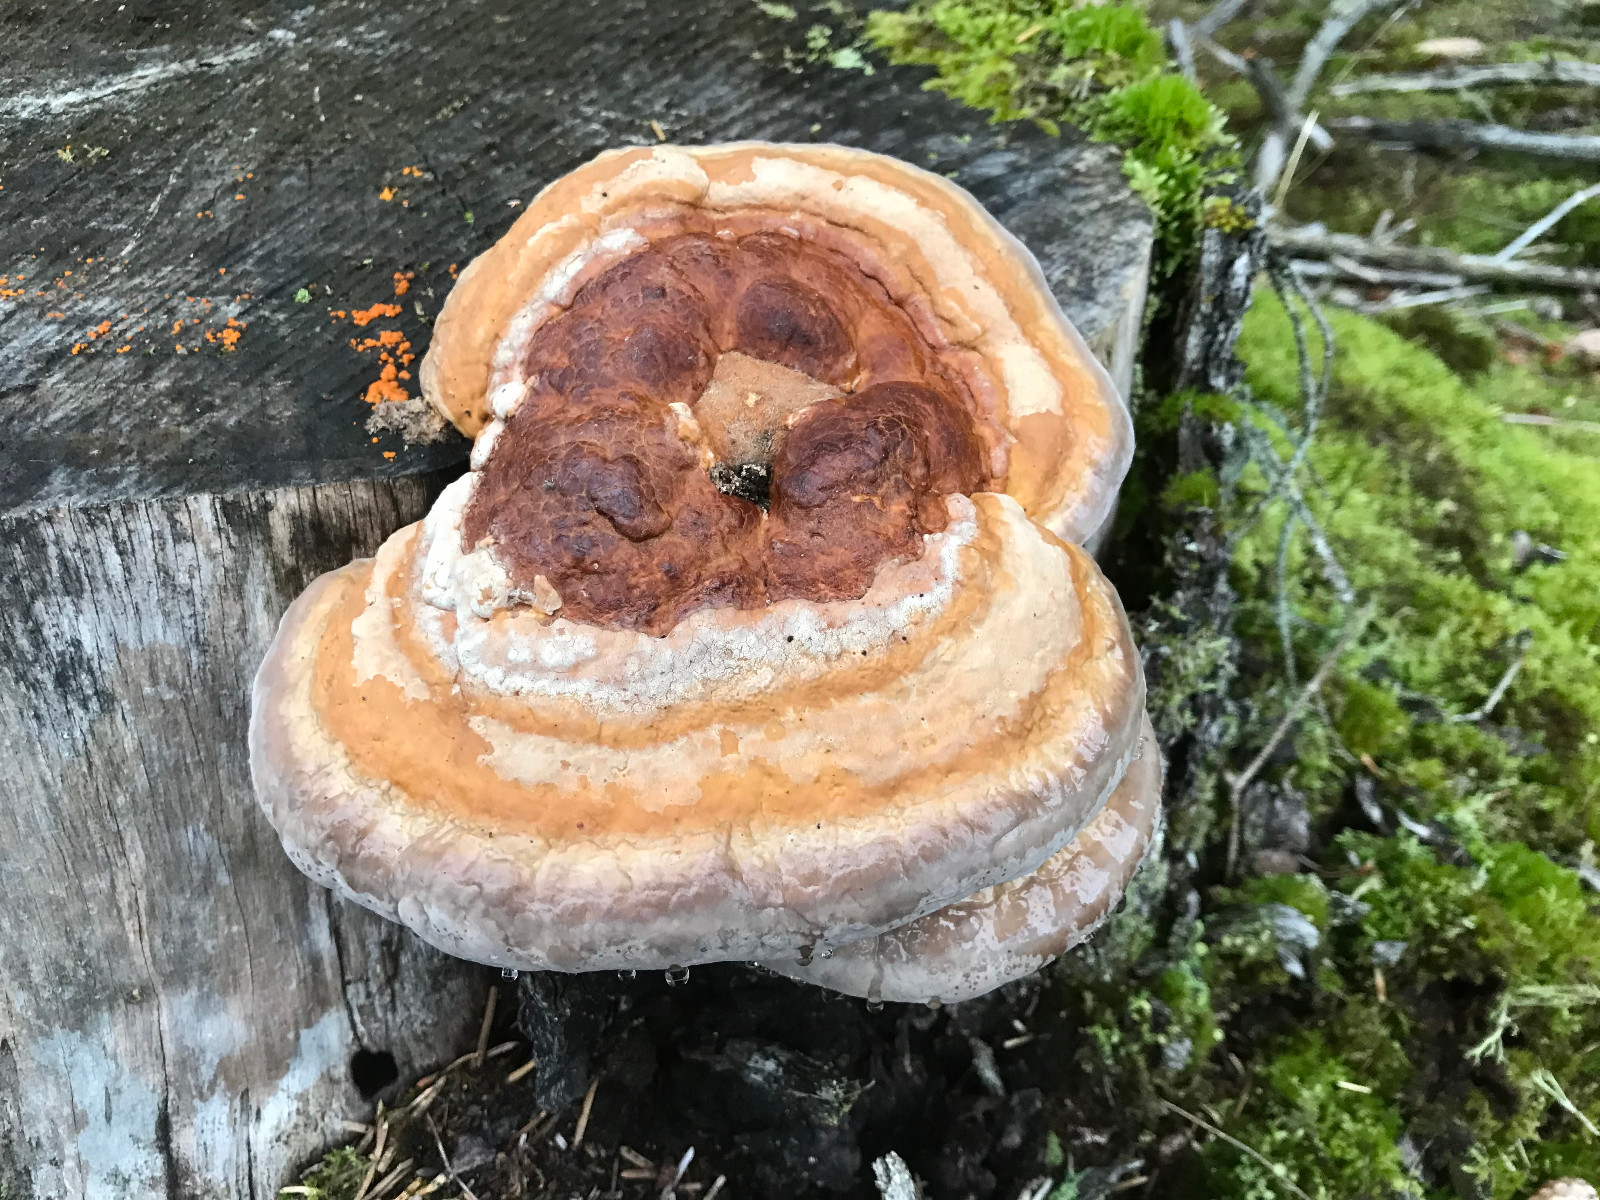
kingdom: Fungi
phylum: Basidiomycota
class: Agaricomycetes
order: Polyporales
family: Fomitopsidaceae
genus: Fomitopsis
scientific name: Fomitopsis pinicola
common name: randbæltet hovporesvamp
